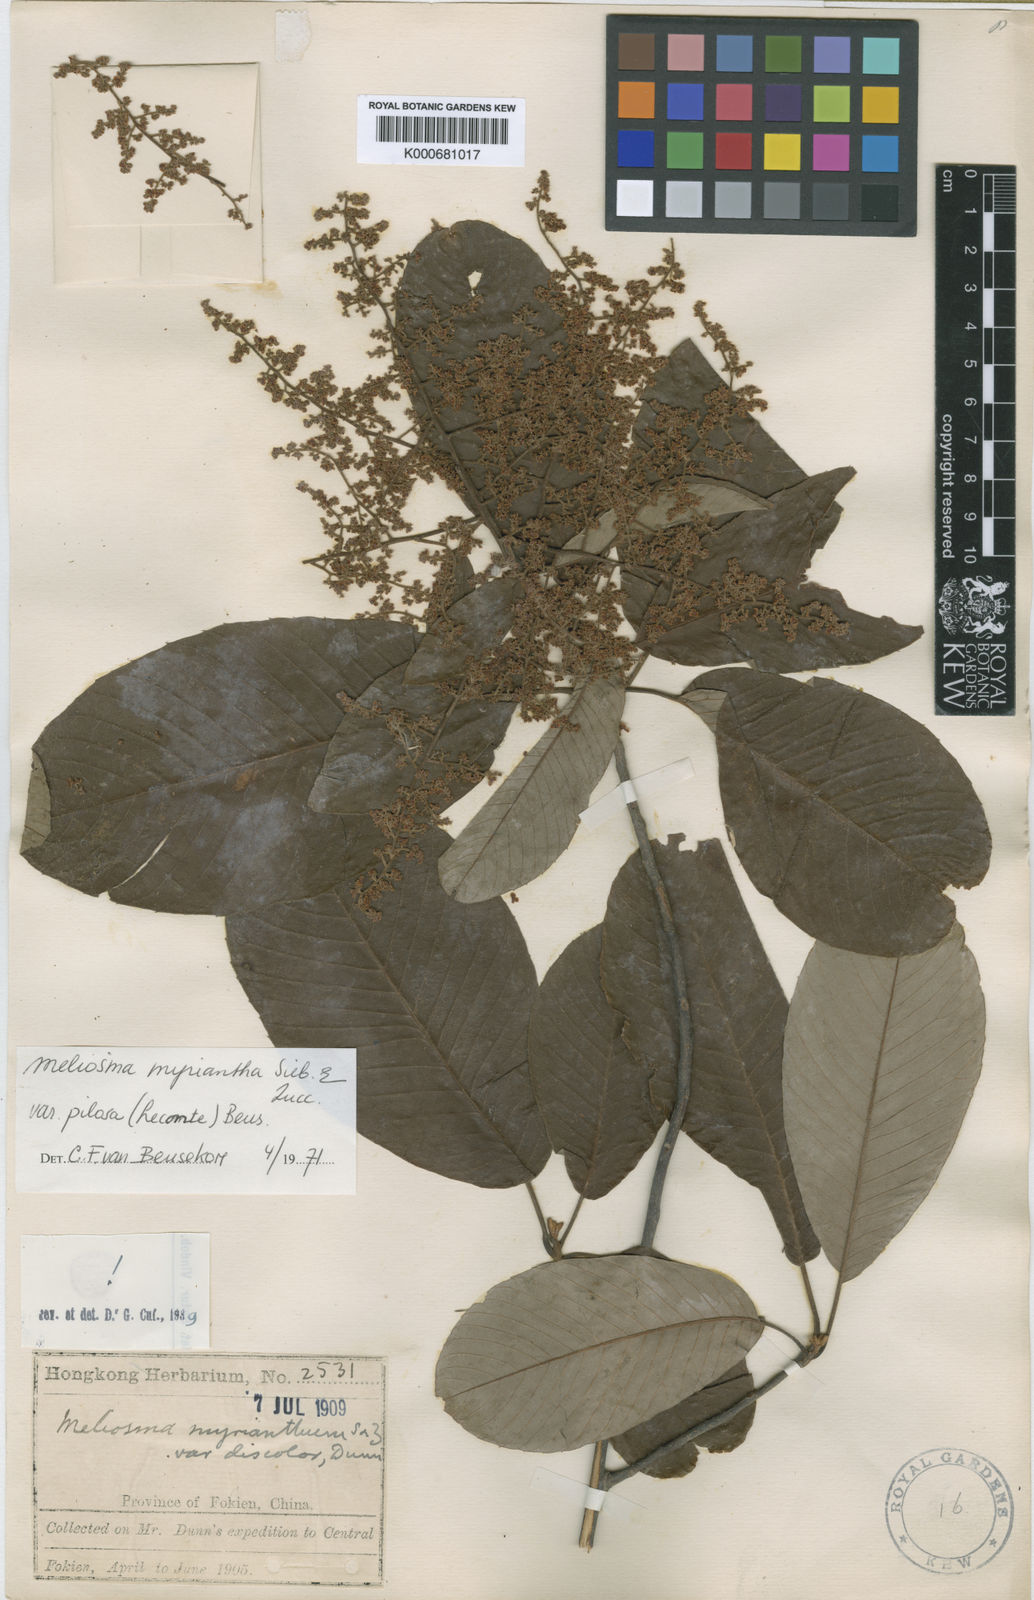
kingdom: Plantae
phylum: Tracheophyta
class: Magnoliopsida
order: Proteales
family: Sabiaceae
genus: Meliosma
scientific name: Meliosma myriantha
